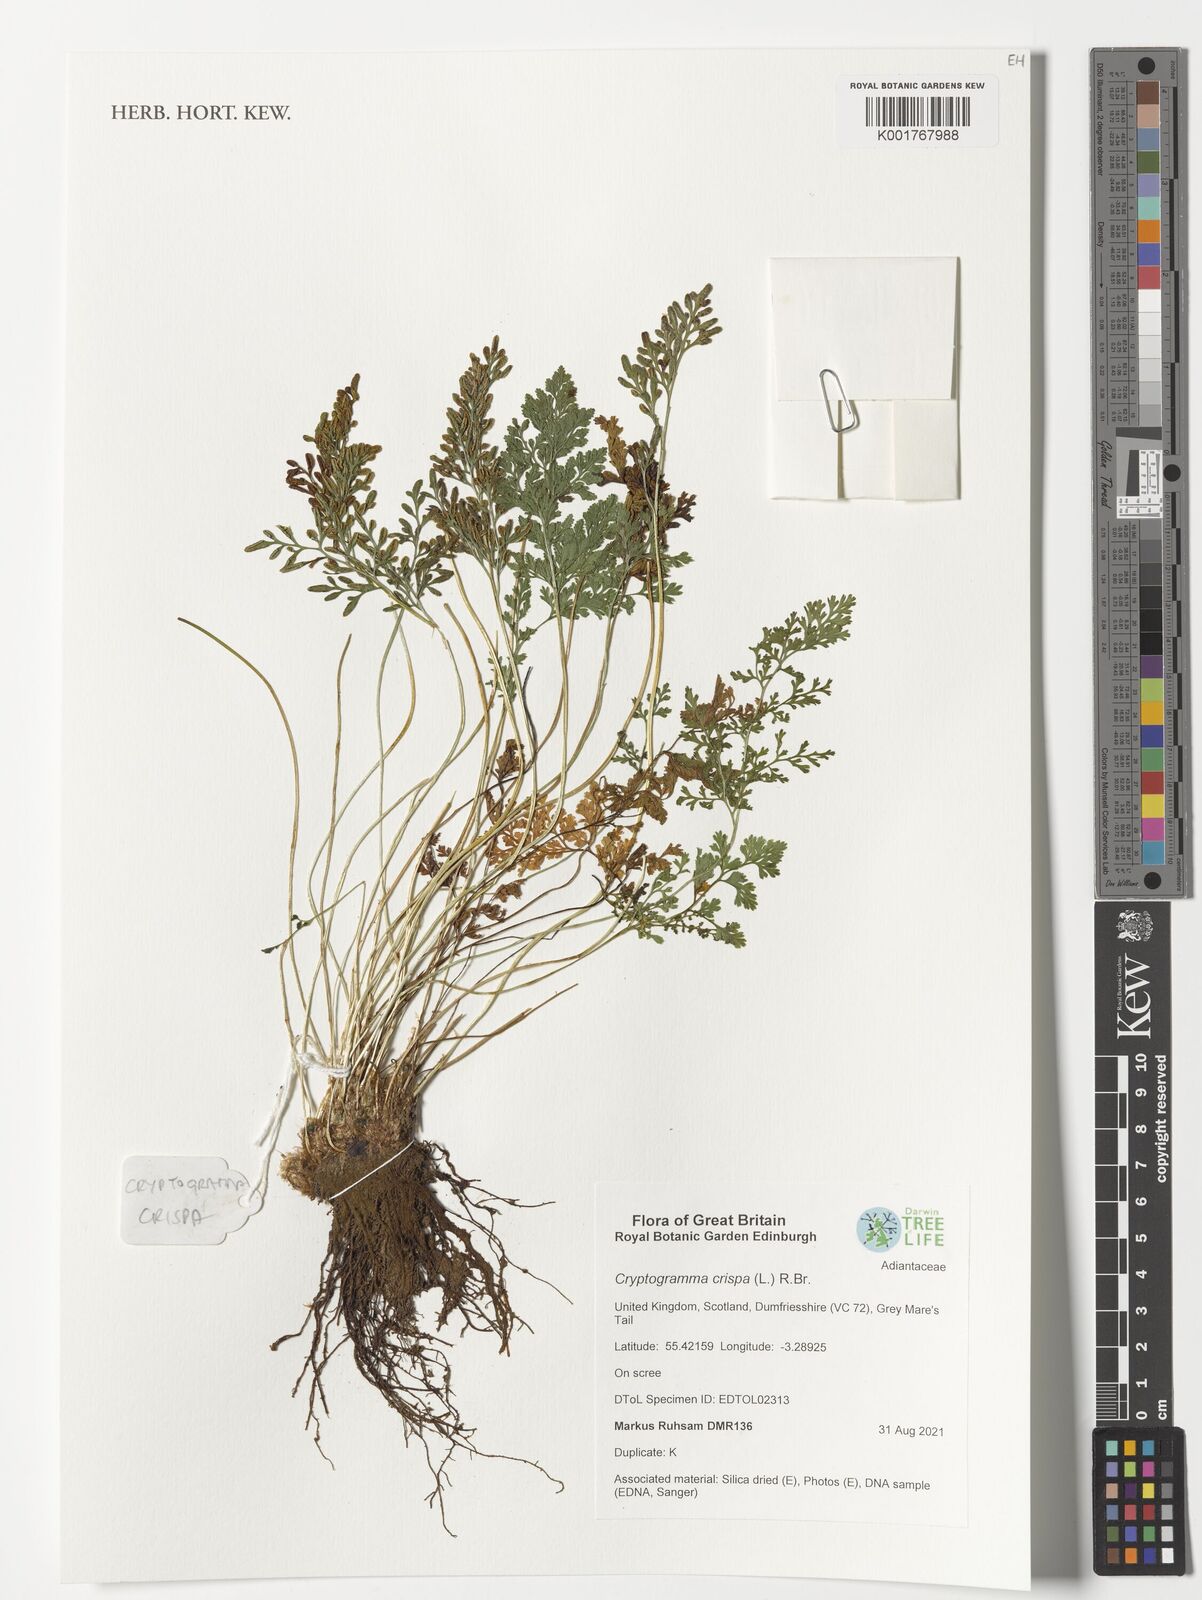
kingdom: Plantae
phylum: Tracheophyta
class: Polypodiopsida
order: Polypodiales
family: Pteridaceae
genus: Cryptogramma
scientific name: Cryptogramma crispa
